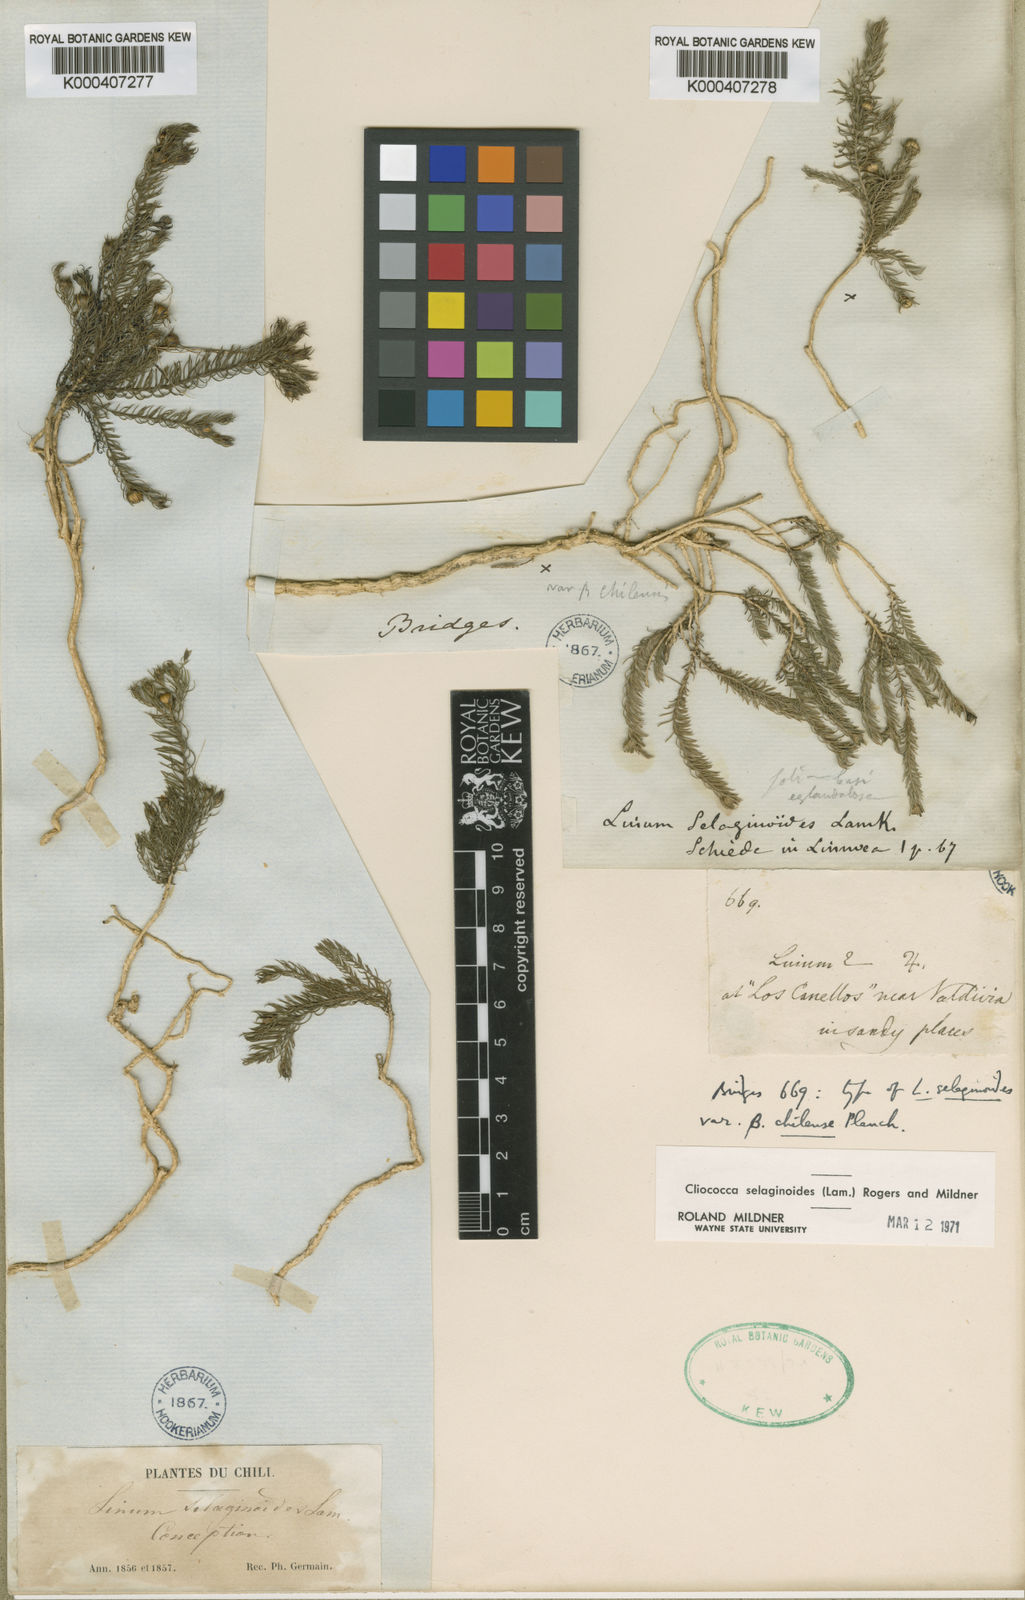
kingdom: Plantae
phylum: Tracheophyta
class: Magnoliopsida
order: Malpighiales
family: Linaceae
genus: Cliococca
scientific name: Cliococca selaginoides
